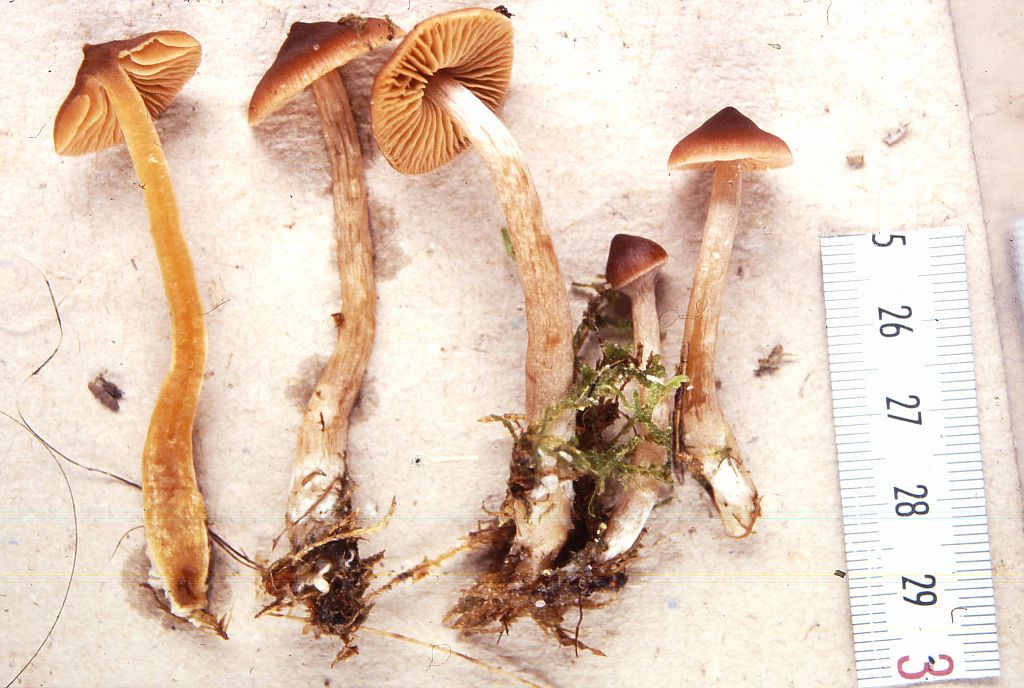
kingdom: Fungi
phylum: Basidiomycota
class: Agaricomycetes
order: Agaricales
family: Cortinariaceae
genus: Cortinarius
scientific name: Cortinarius
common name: ræve-slørhat
